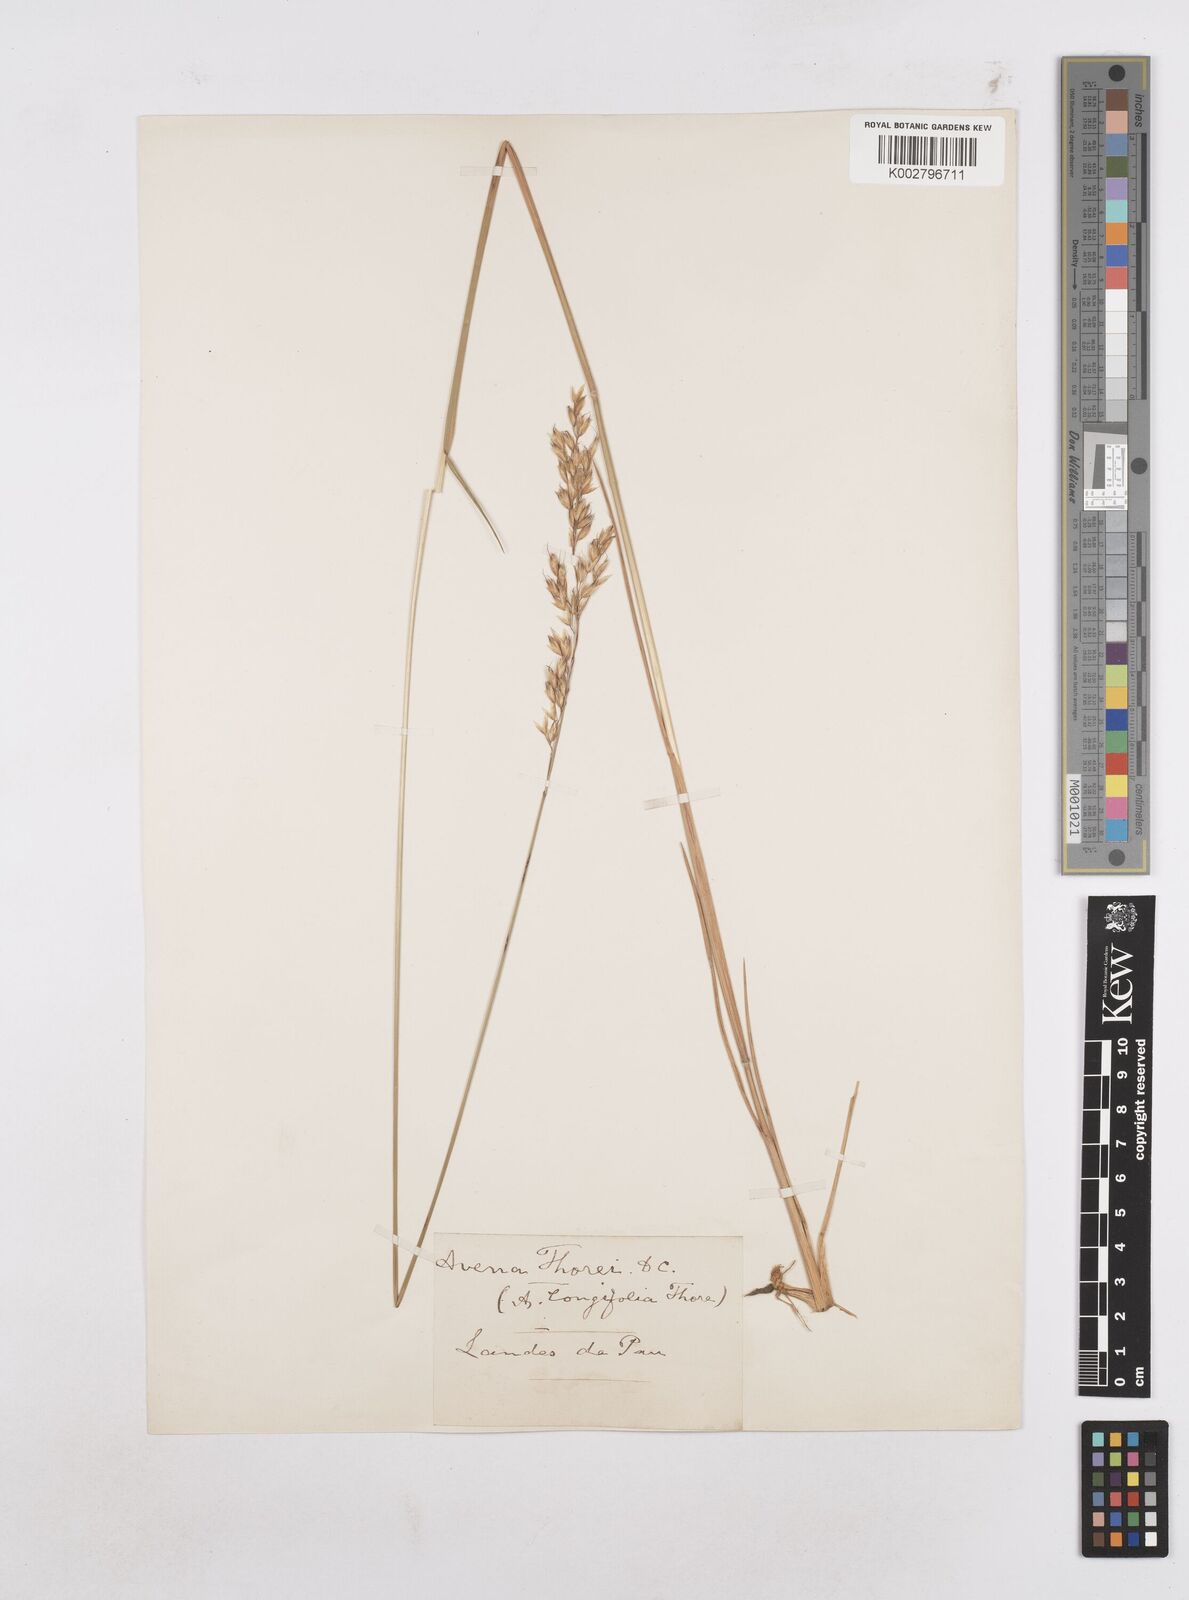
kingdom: Plantae
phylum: Tracheophyta
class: Liliopsida
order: Poales
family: Poaceae
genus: Arrhenatherum
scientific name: Arrhenatherum longifolium
